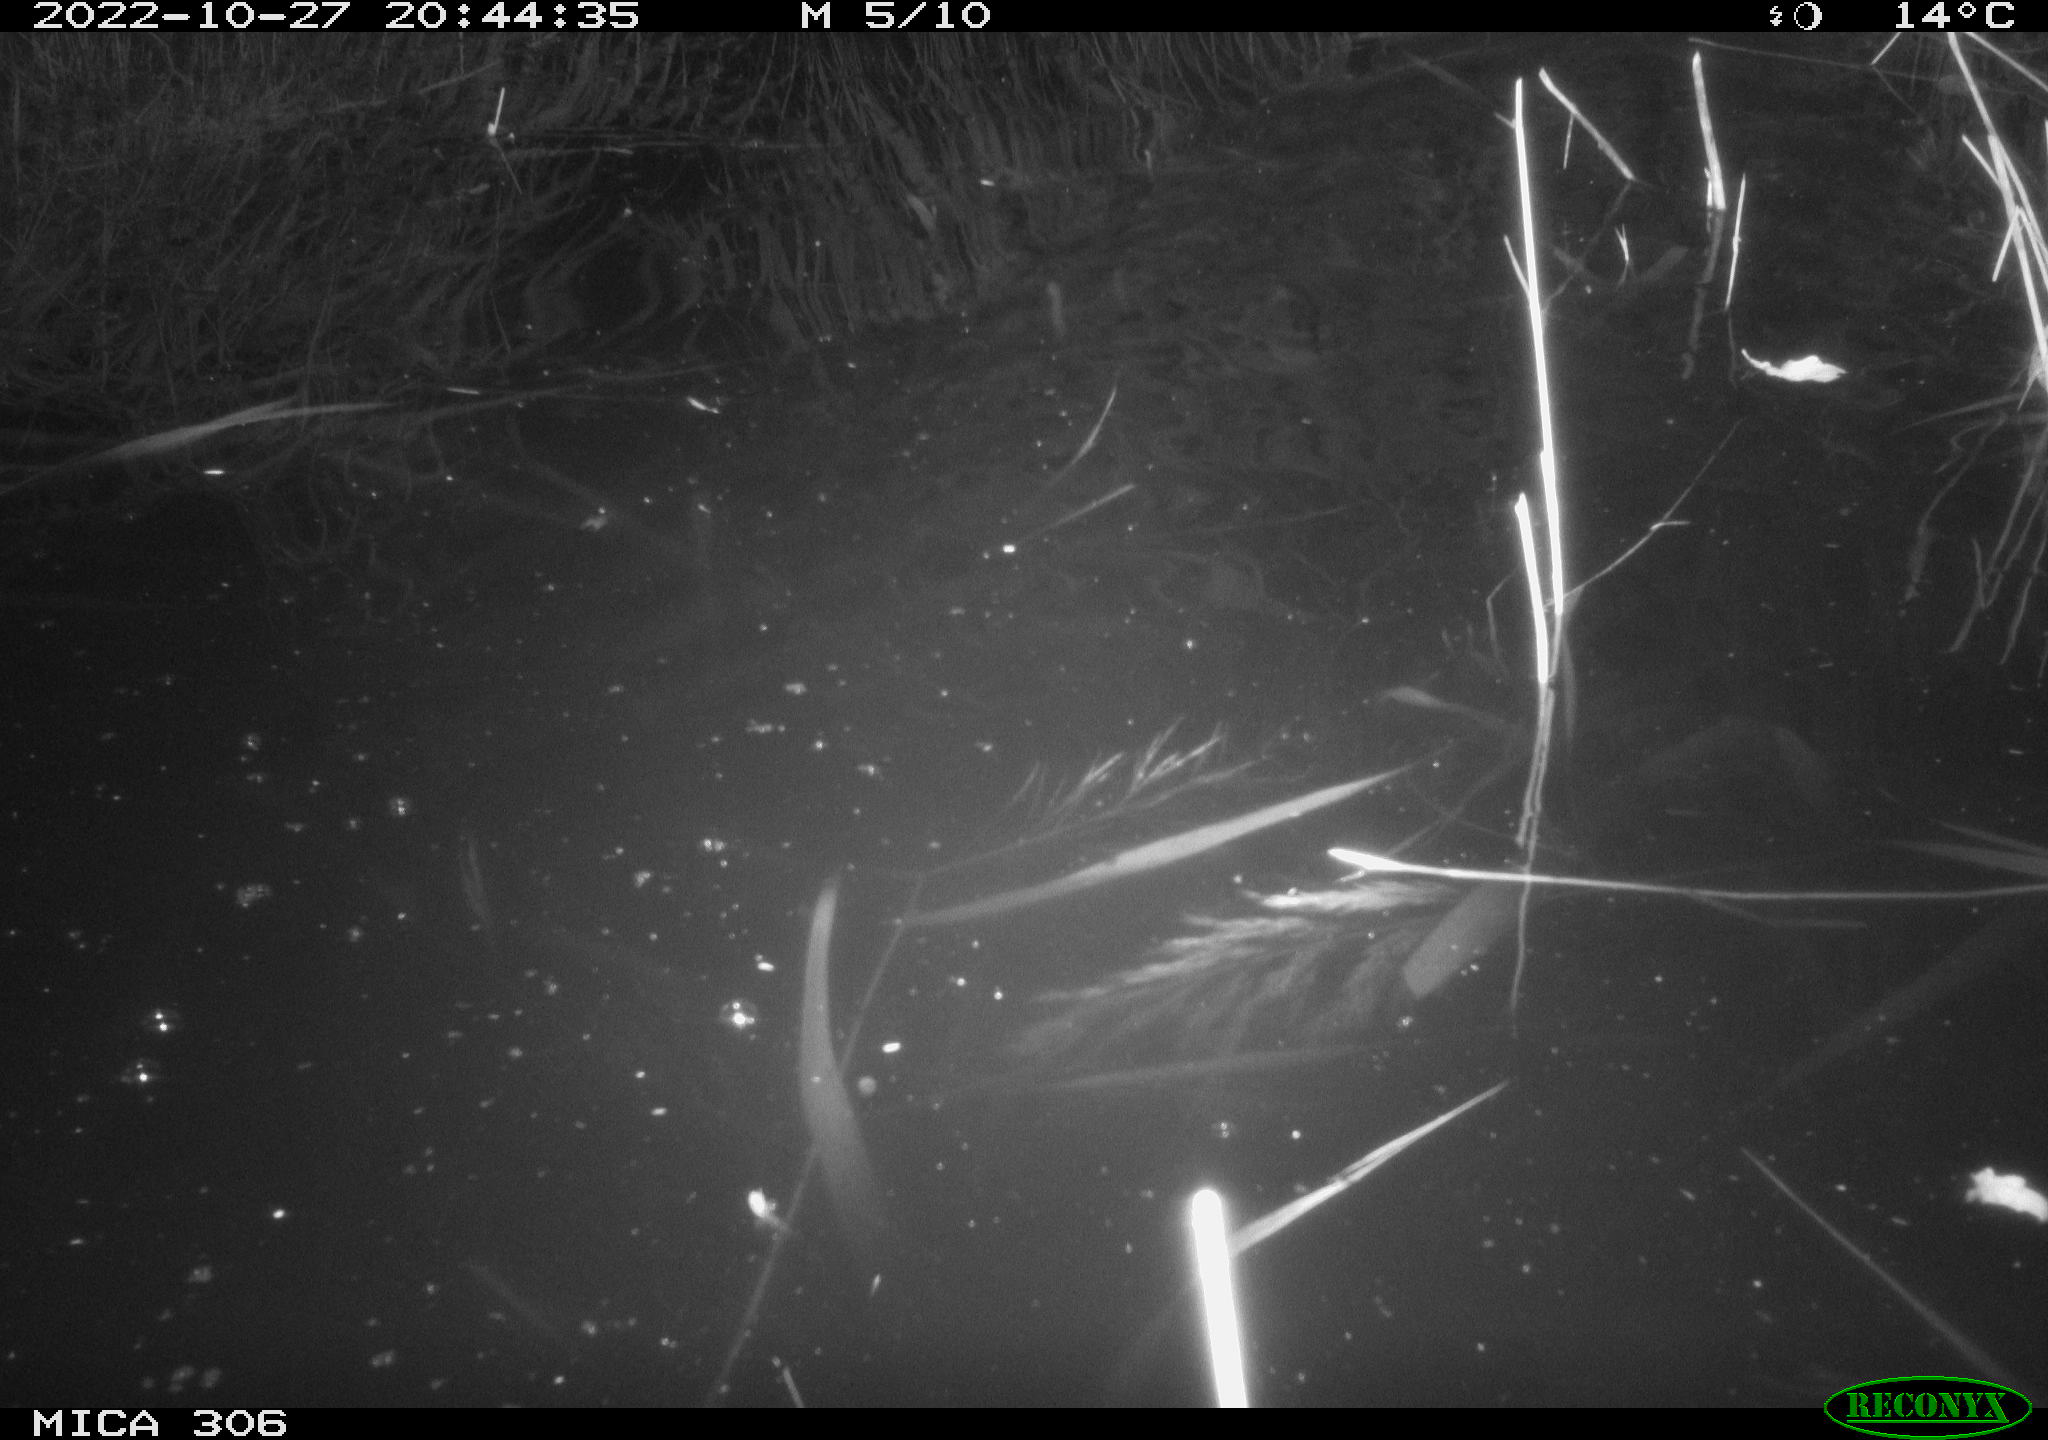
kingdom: Animalia
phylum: Chordata
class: Mammalia
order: Rodentia
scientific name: Rodentia
